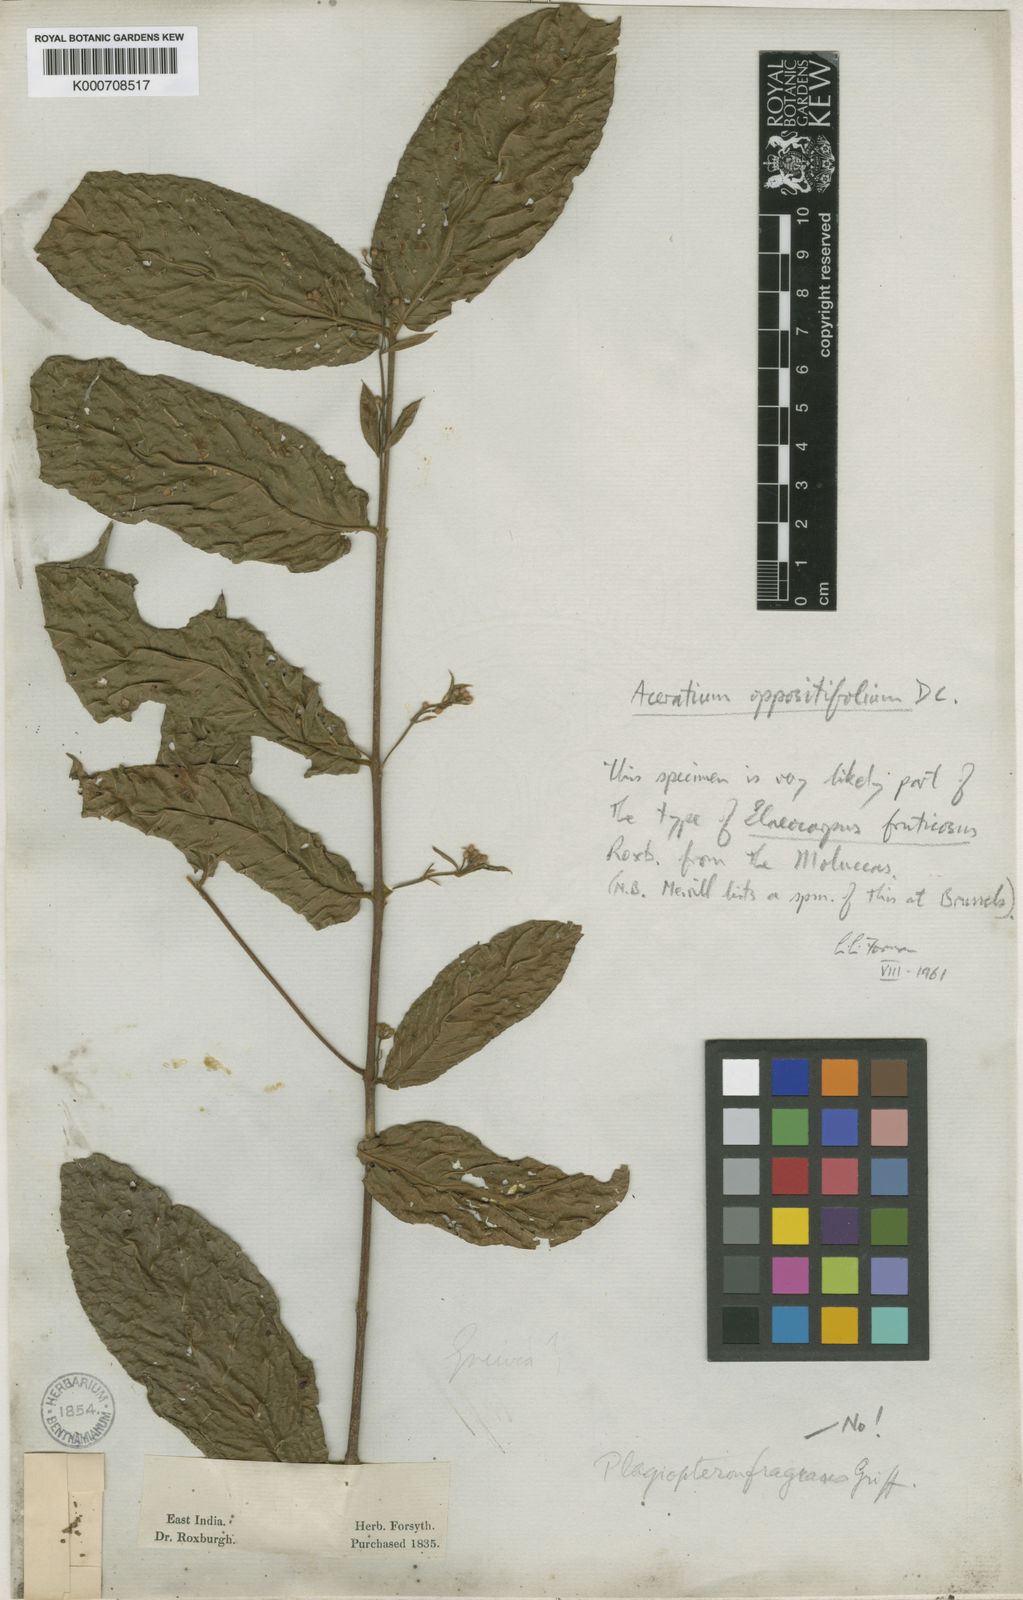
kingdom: Plantae
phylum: Tracheophyta
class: Magnoliopsida
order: Oxalidales
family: Elaeocarpaceae
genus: Aceratium
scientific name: Aceratium oppositifolium
